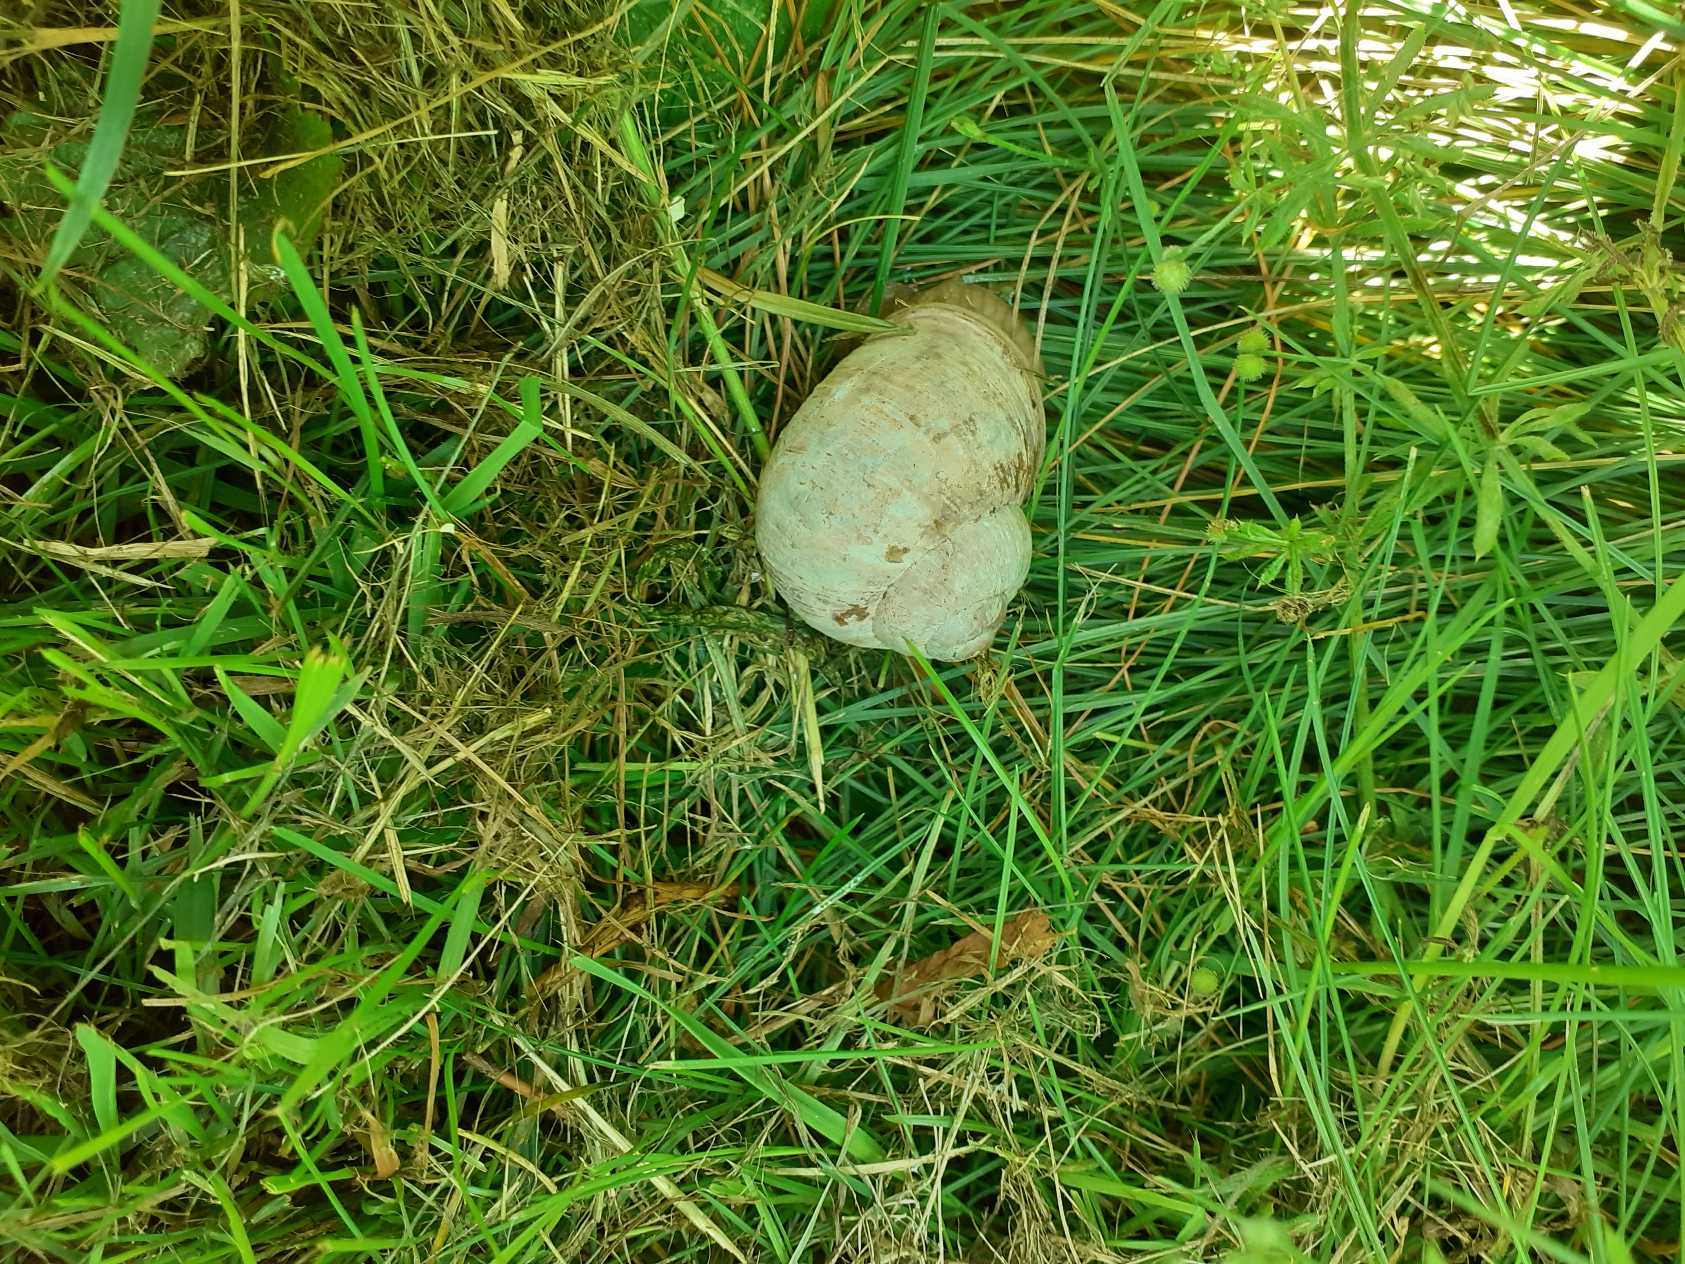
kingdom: Animalia
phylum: Mollusca
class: Gastropoda
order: Stylommatophora
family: Helicidae
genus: Helix
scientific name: Helix pomatia
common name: Vinbjergsnegl
